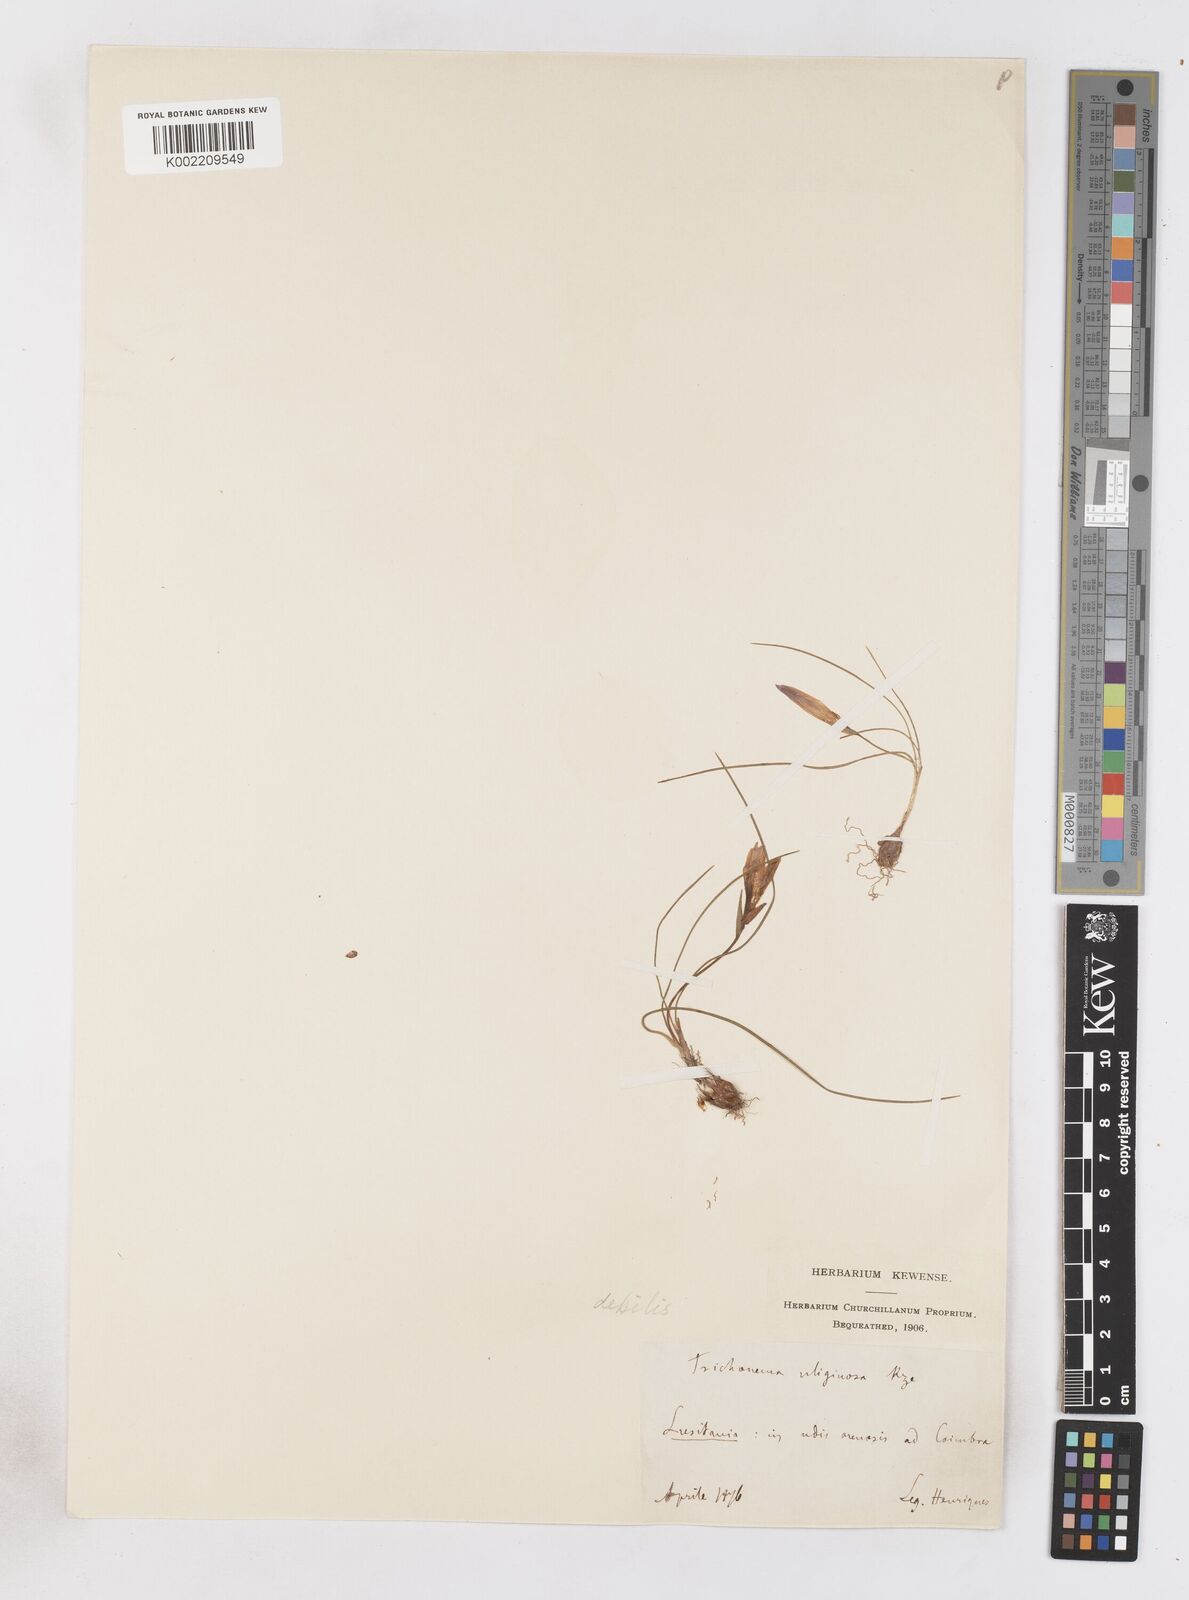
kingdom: Plantae
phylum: Tracheophyta
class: Liliopsida
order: Asparagales
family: Iridaceae
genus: Romulea
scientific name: Romulea bulbocodium
